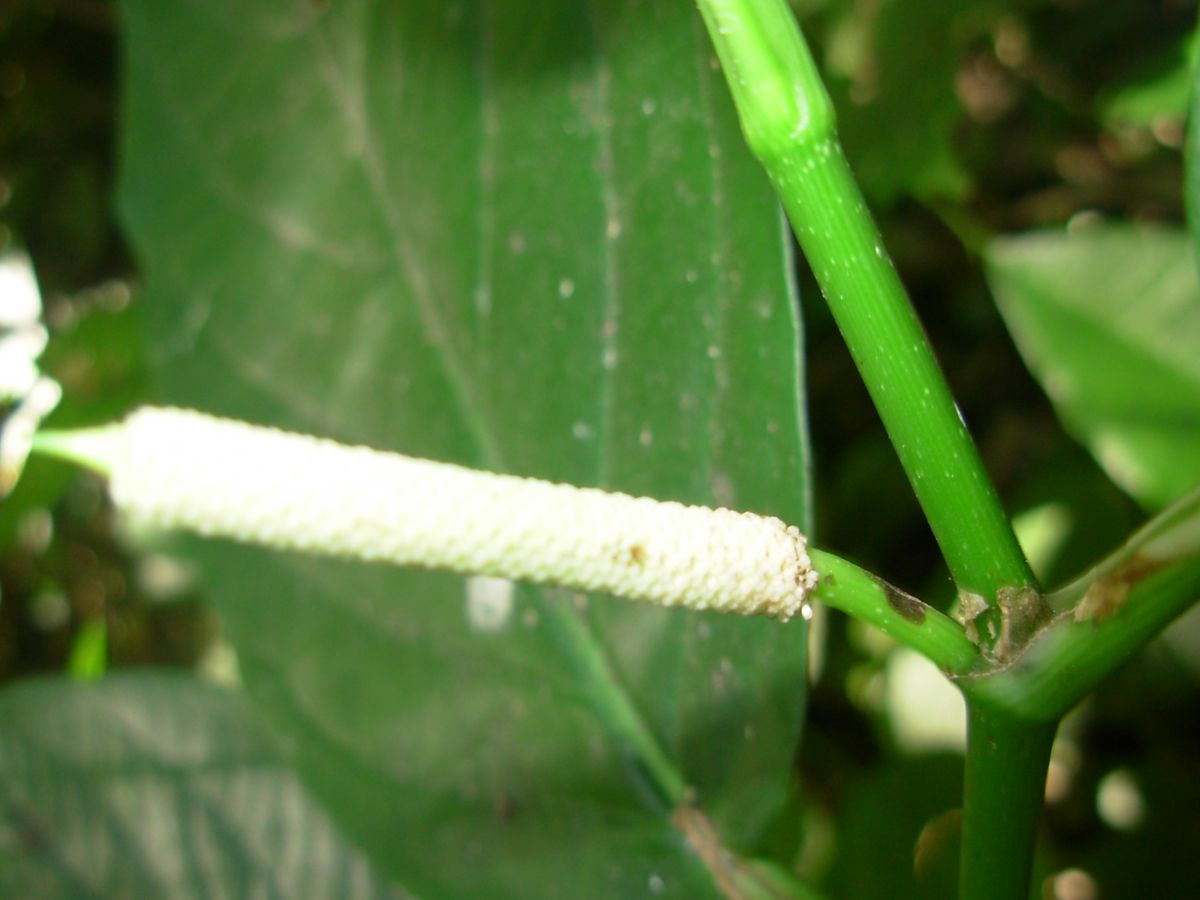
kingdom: Plantae
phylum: Tracheophyta
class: Magnoliopsida
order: Piperales
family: Piperaceae
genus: Piper
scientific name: Piper glabrescens
